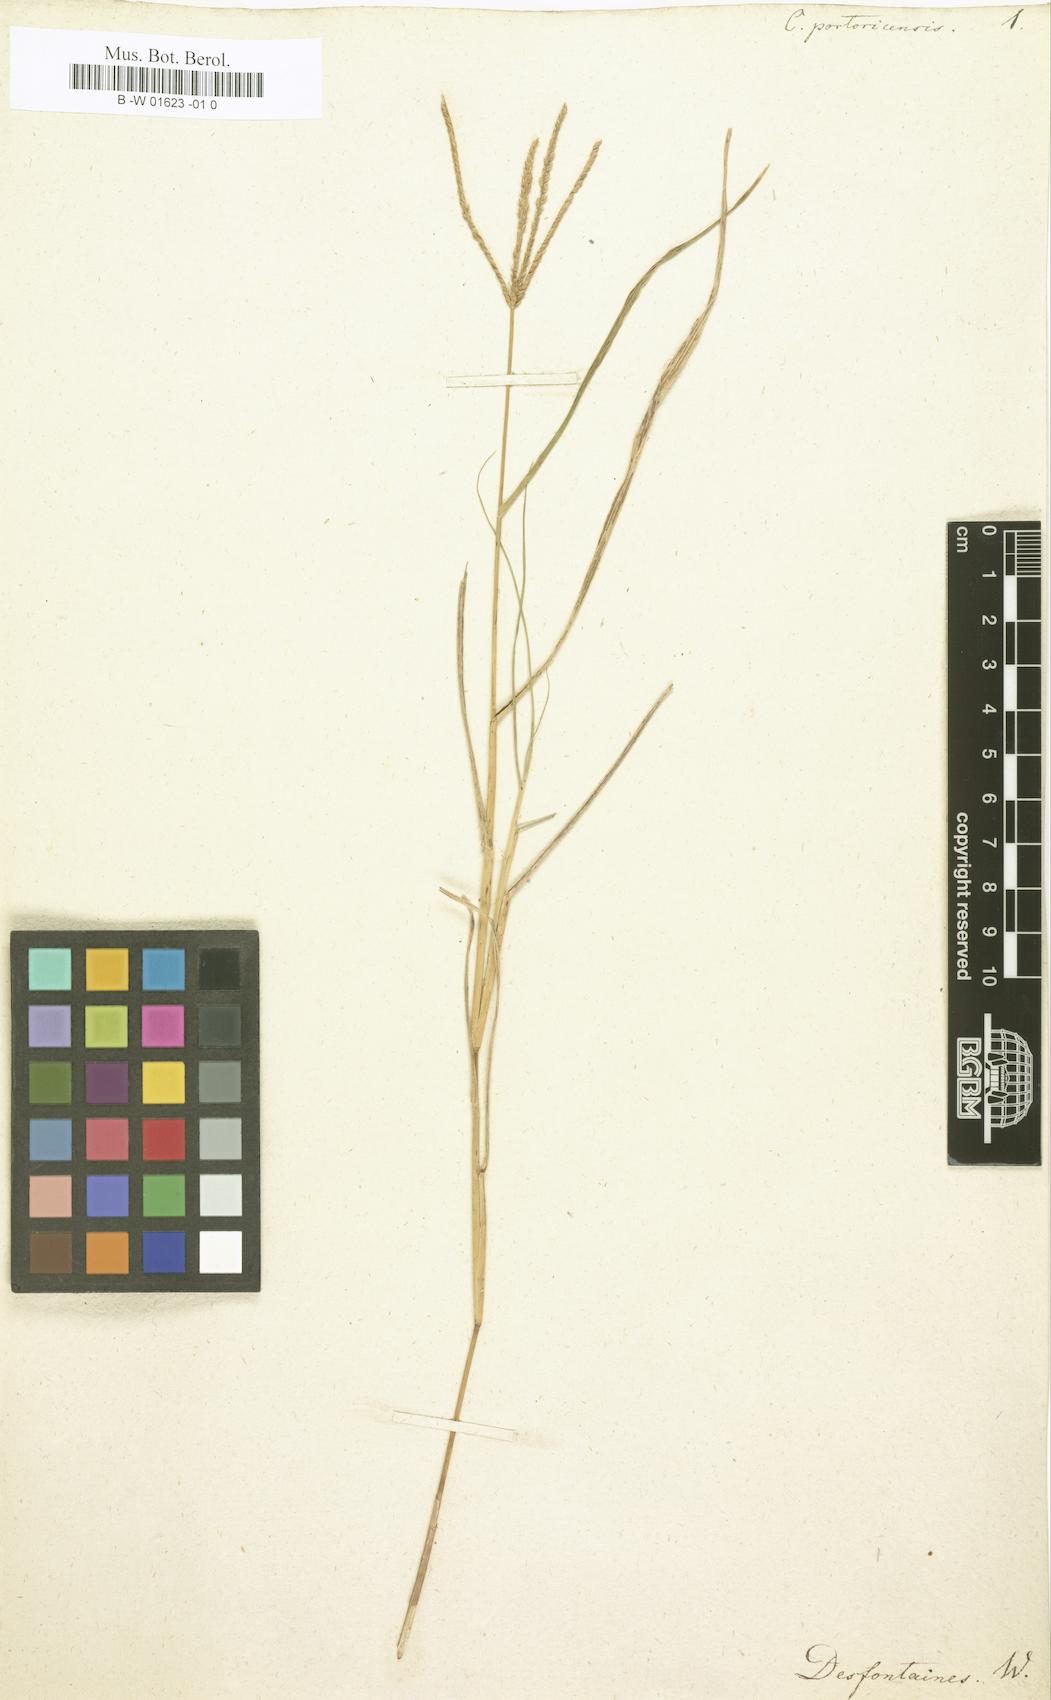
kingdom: Plantae
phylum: Tracheophyta
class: Liliopsida
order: Poales
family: Poaceae
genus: Cynodon
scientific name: Cynodon dactylon
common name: Bermuda grass
